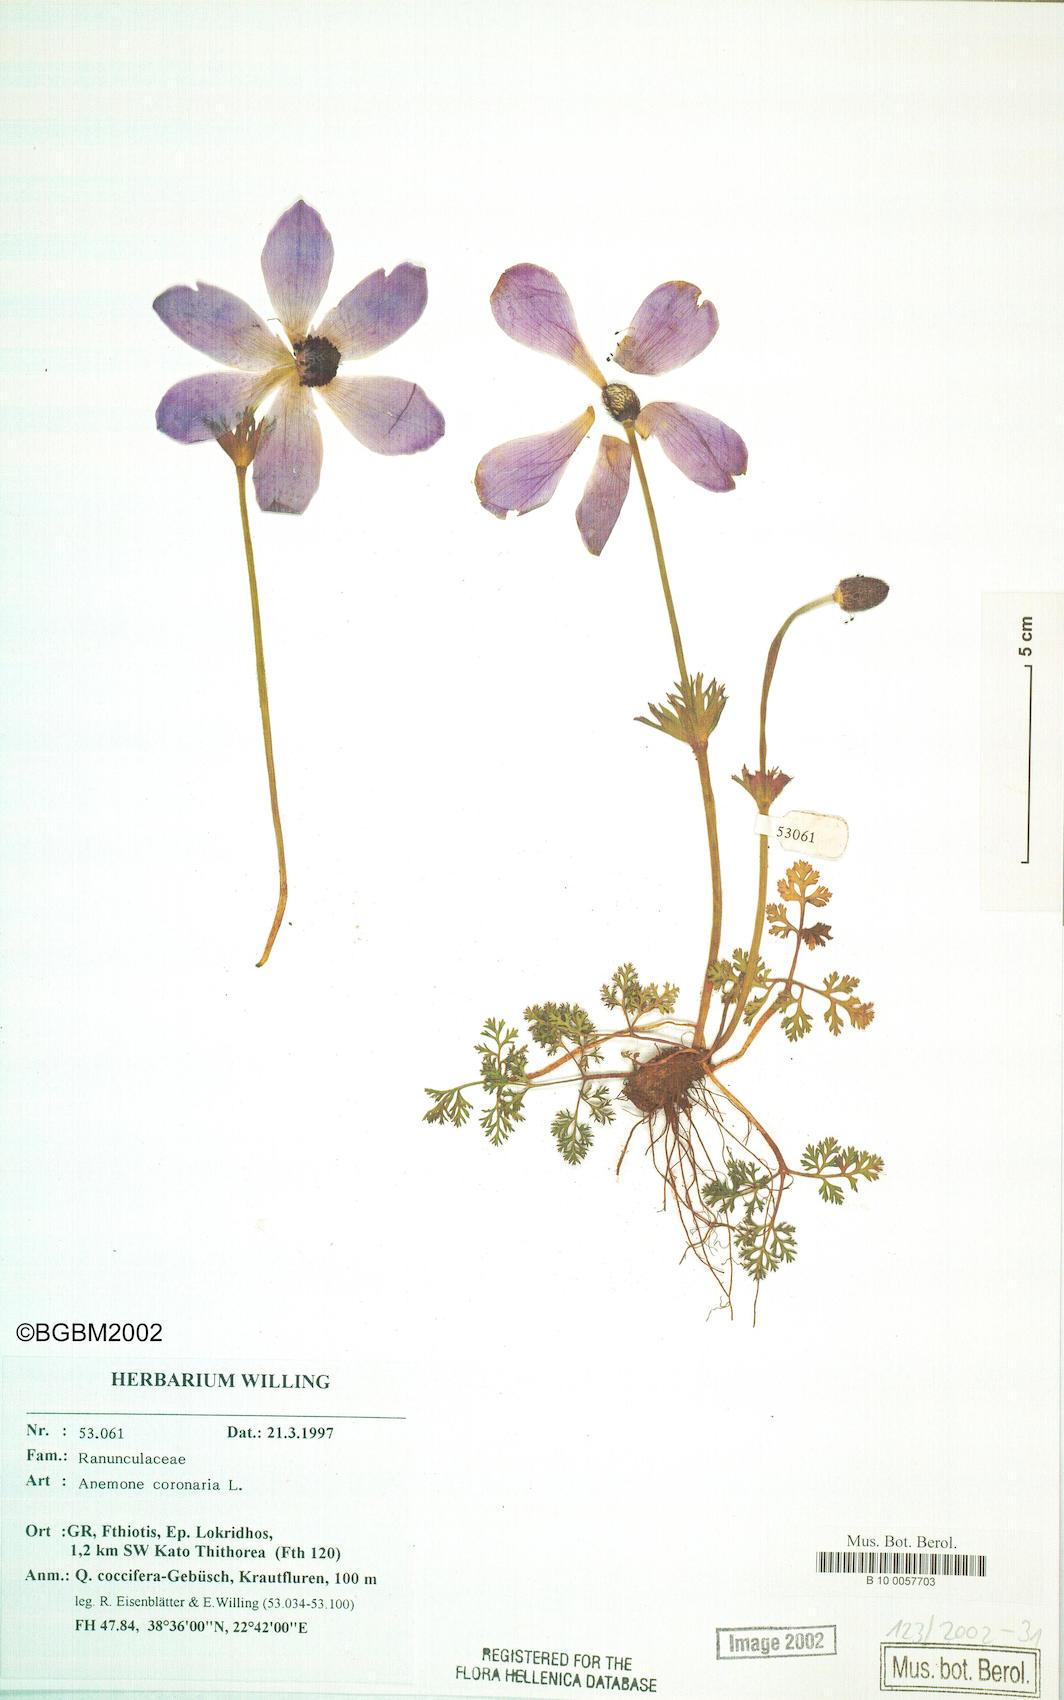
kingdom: Plantae
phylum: Tracheophyta
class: Magnoliopsida
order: Ranunculales
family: Ranunculaceae
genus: Anemone
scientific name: Anemone coronaria
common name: Poppy anemone
